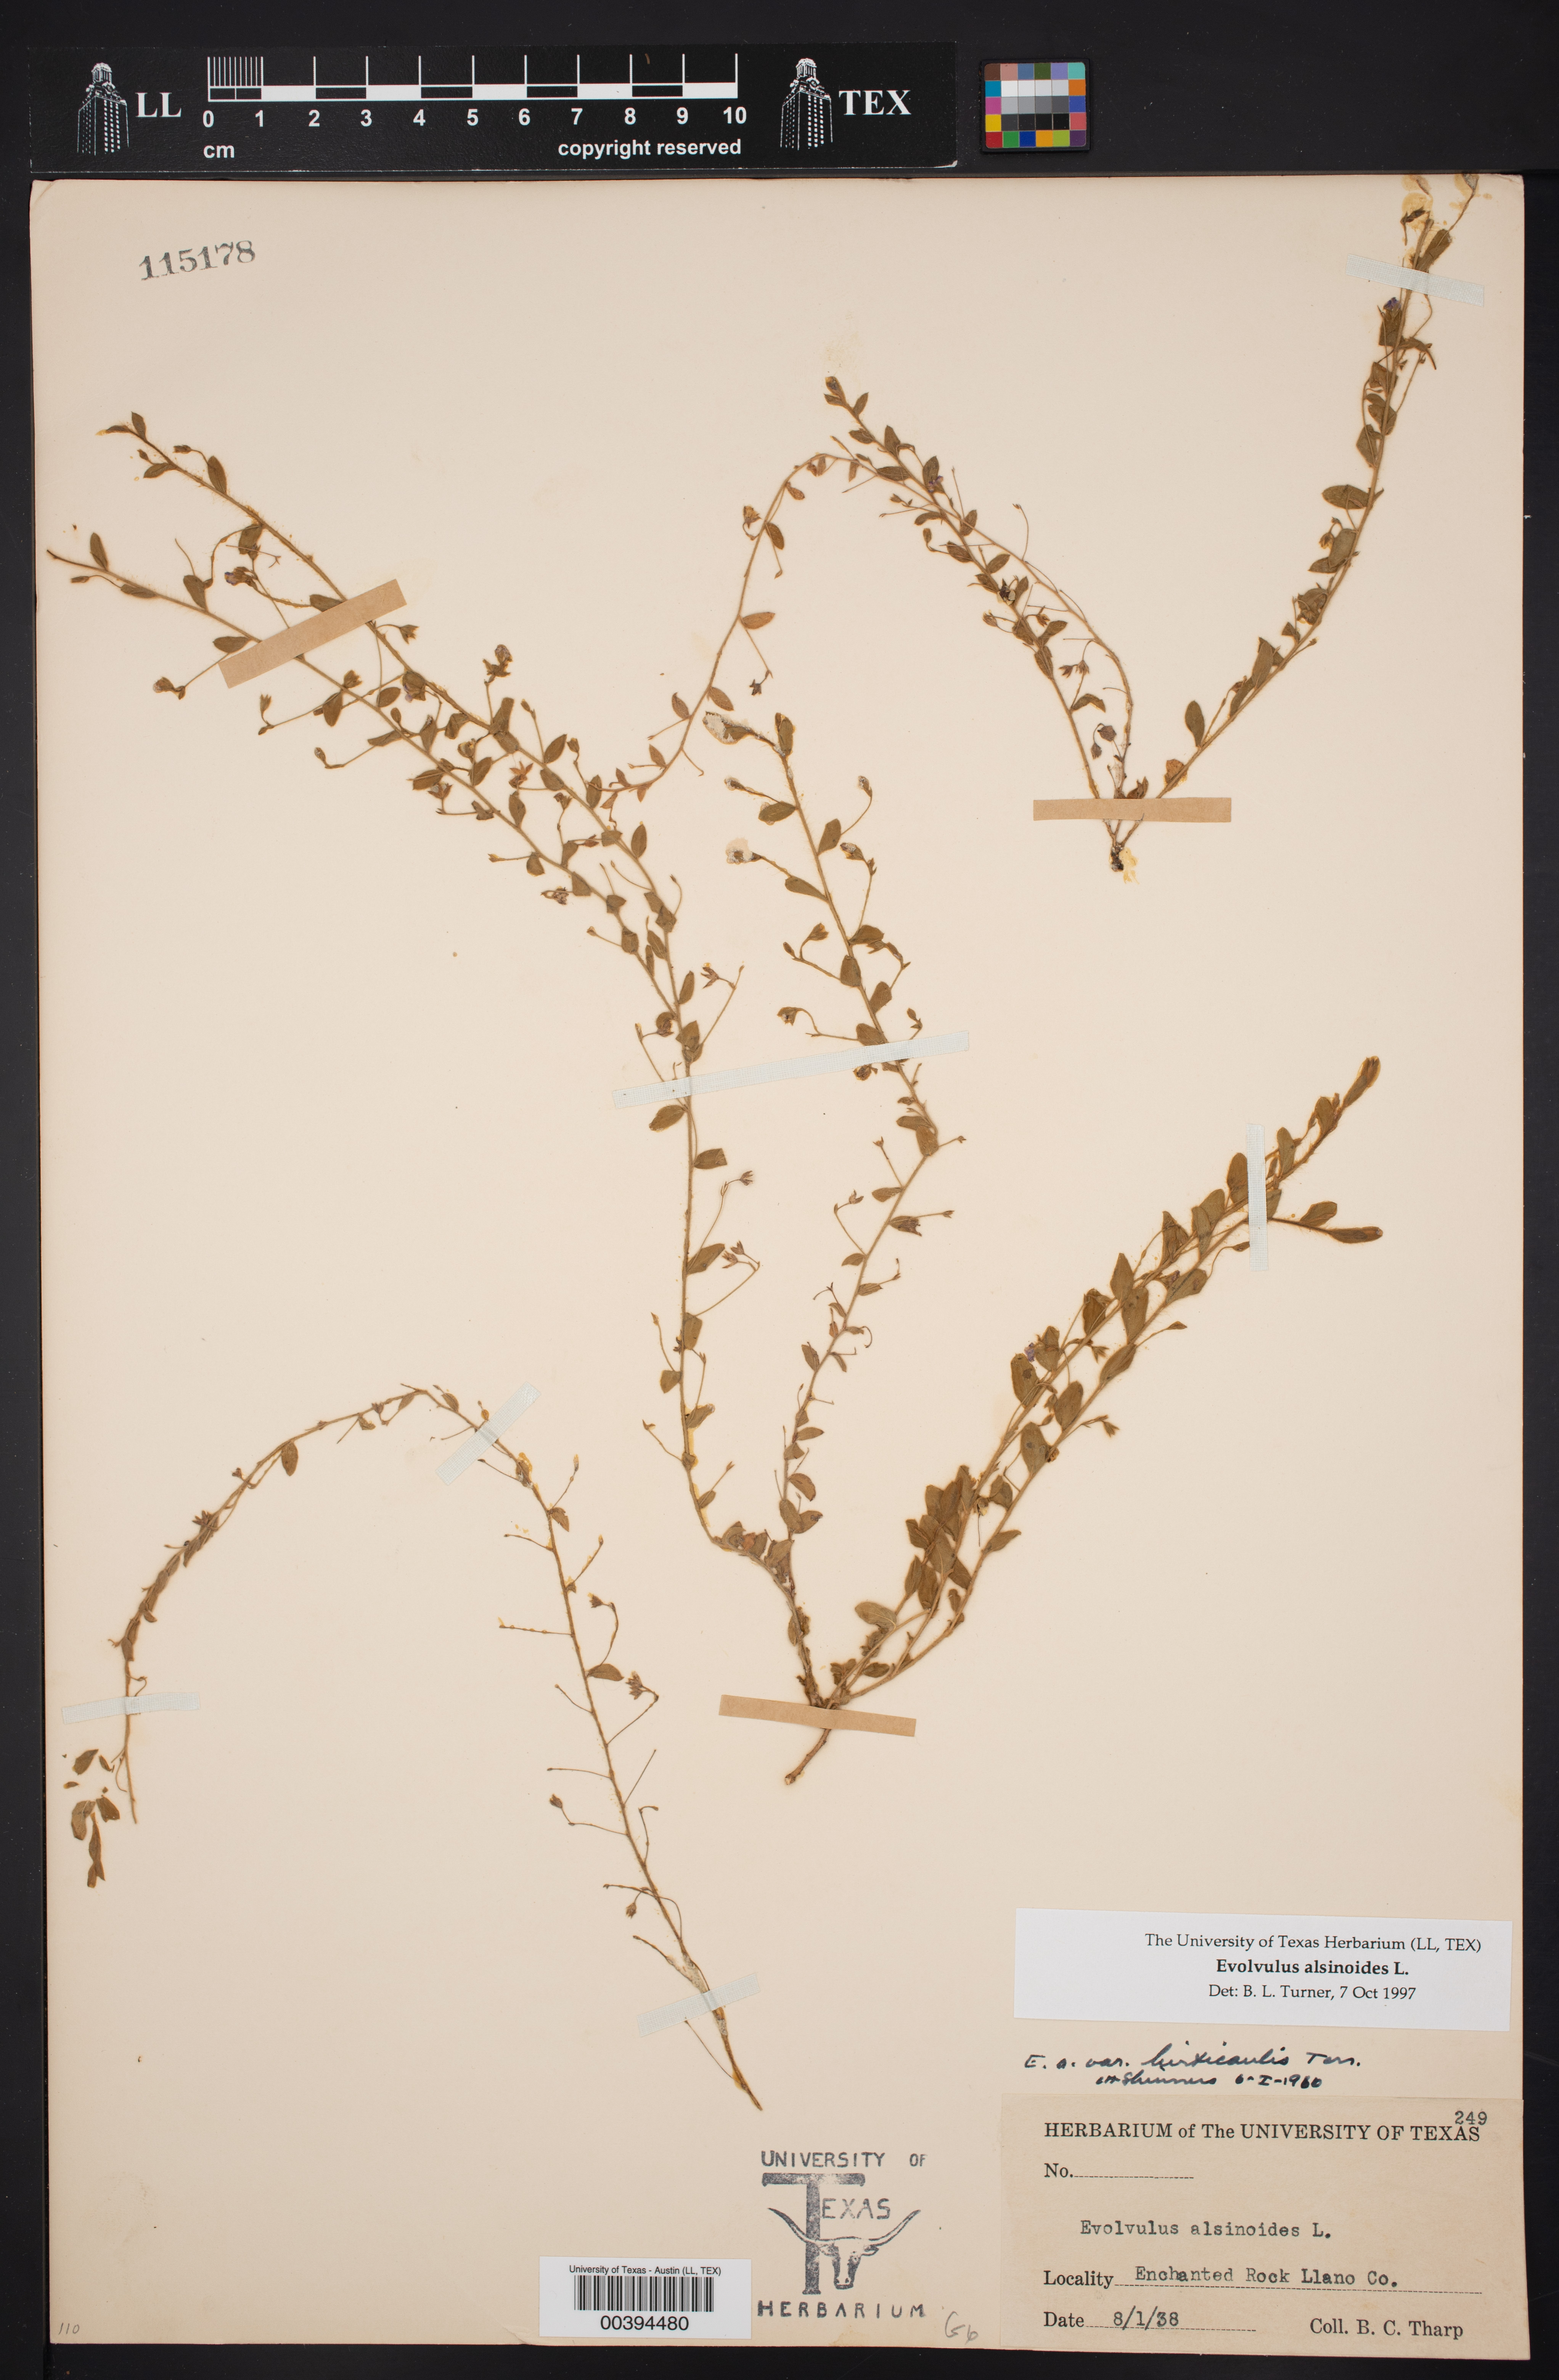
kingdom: Plantae
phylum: Tracheophyta
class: Magnoliopsida
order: Solanales
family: Convolvulaceae
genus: Evolvulus
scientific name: Evolvulus alsinoides
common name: Slender dwarf morning-glory
